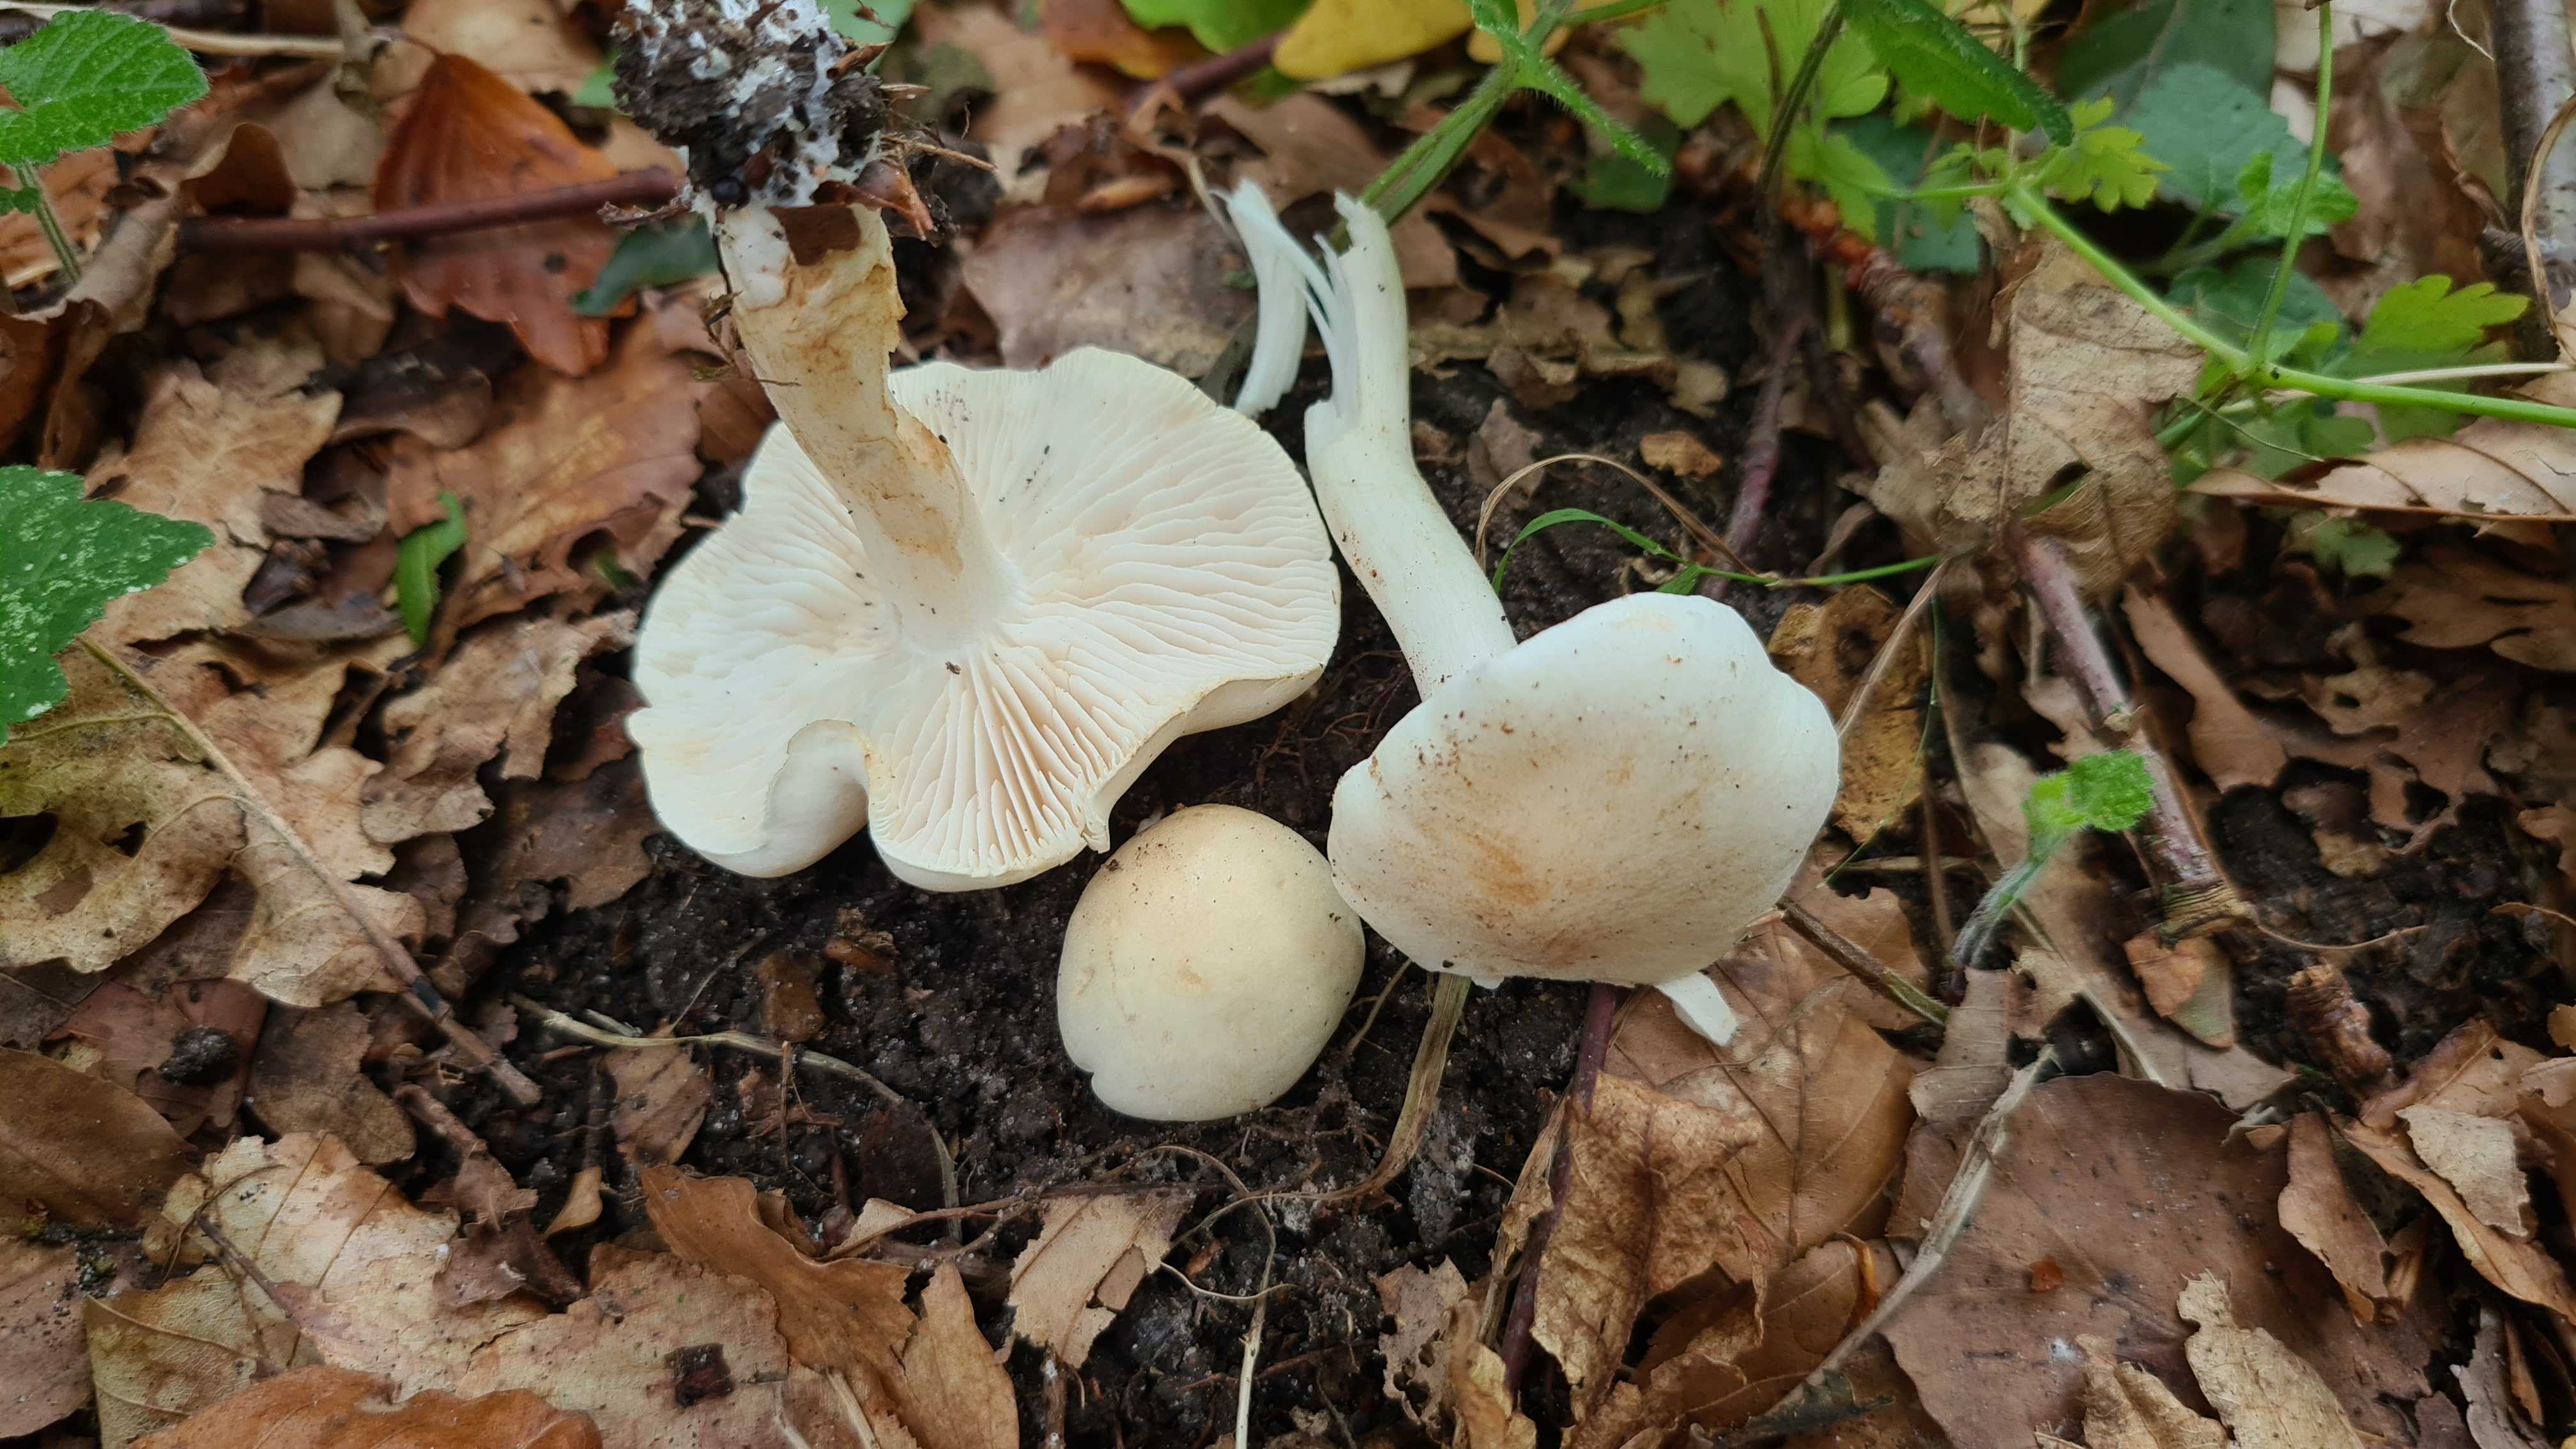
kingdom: Fungi
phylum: Basidiomycota
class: Agaricomycetes
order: Agaricales
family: Tricholomataceae
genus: Tricholoma
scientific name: Tricholoma lascivum
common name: stinkende ridderhat
